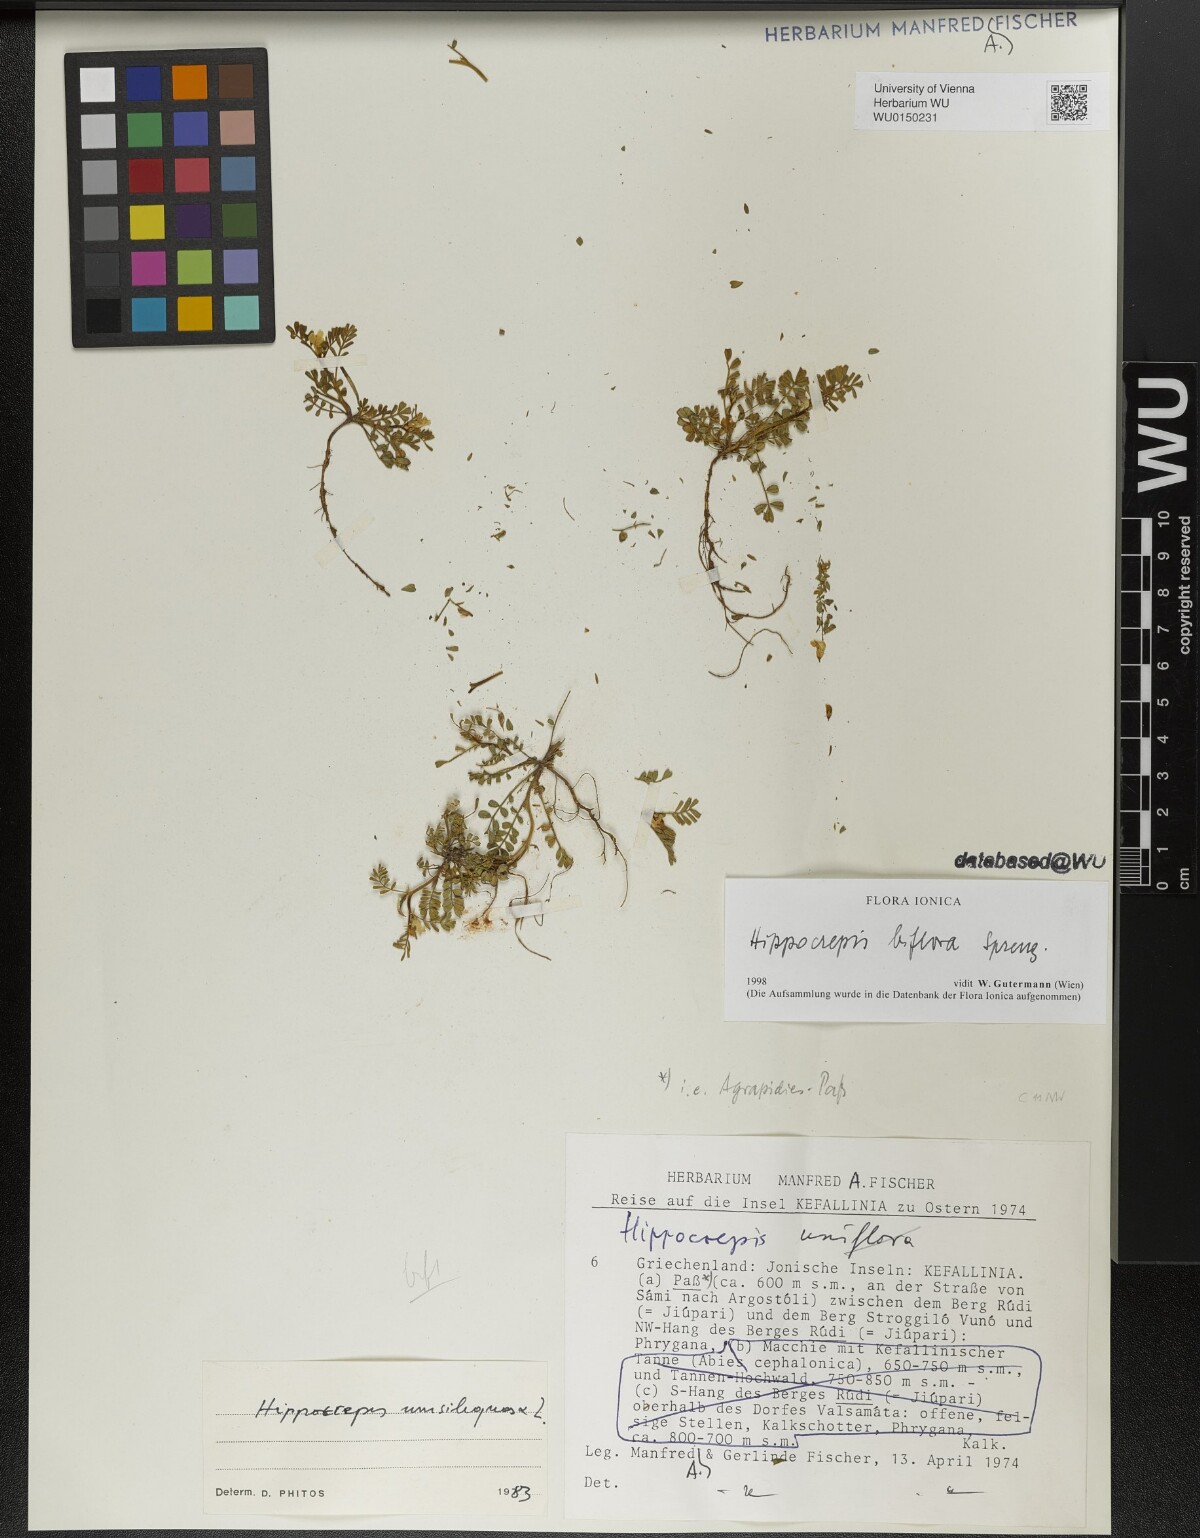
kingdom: Plantae
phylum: Tracheophyta
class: Magnoliopsida
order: Fabales
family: Fabaceae
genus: Hippocrepis
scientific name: Hippocrepis biflora
